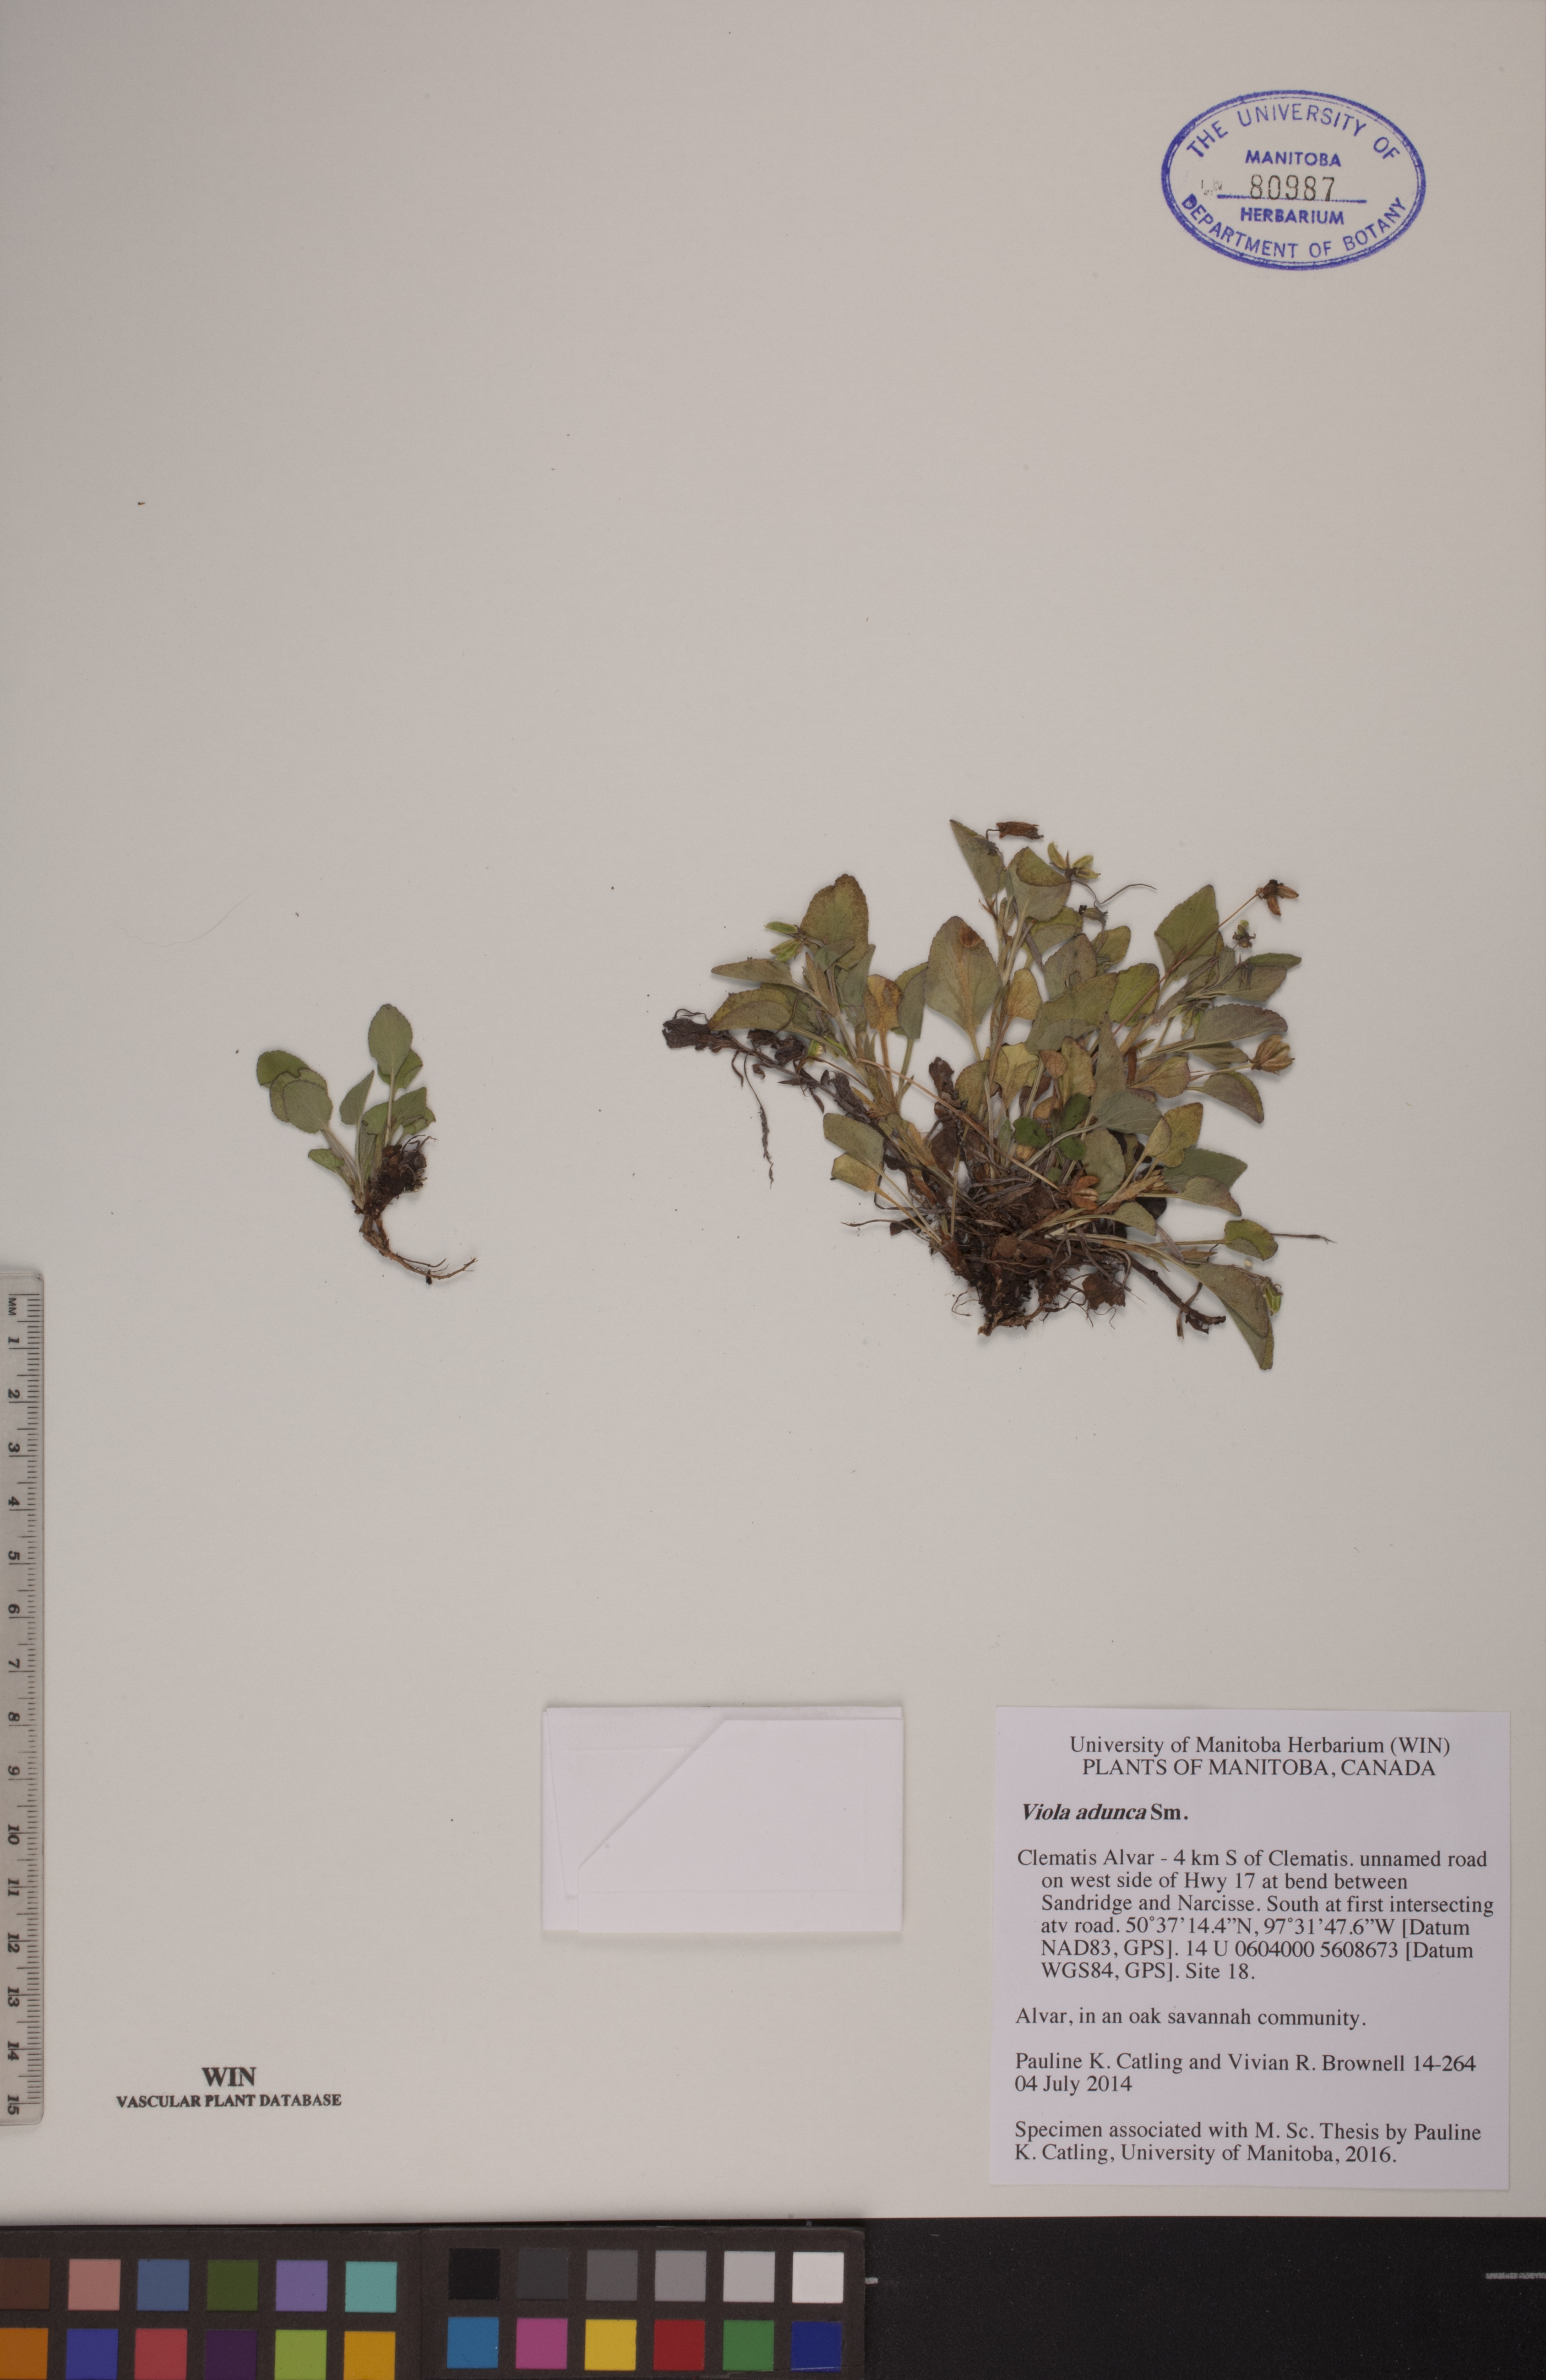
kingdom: Plantae
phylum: Tracheophyta
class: Magnoliopsida
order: Malpighiales
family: Violaceae
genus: Viola
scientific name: Viola adunca
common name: Sand violet
